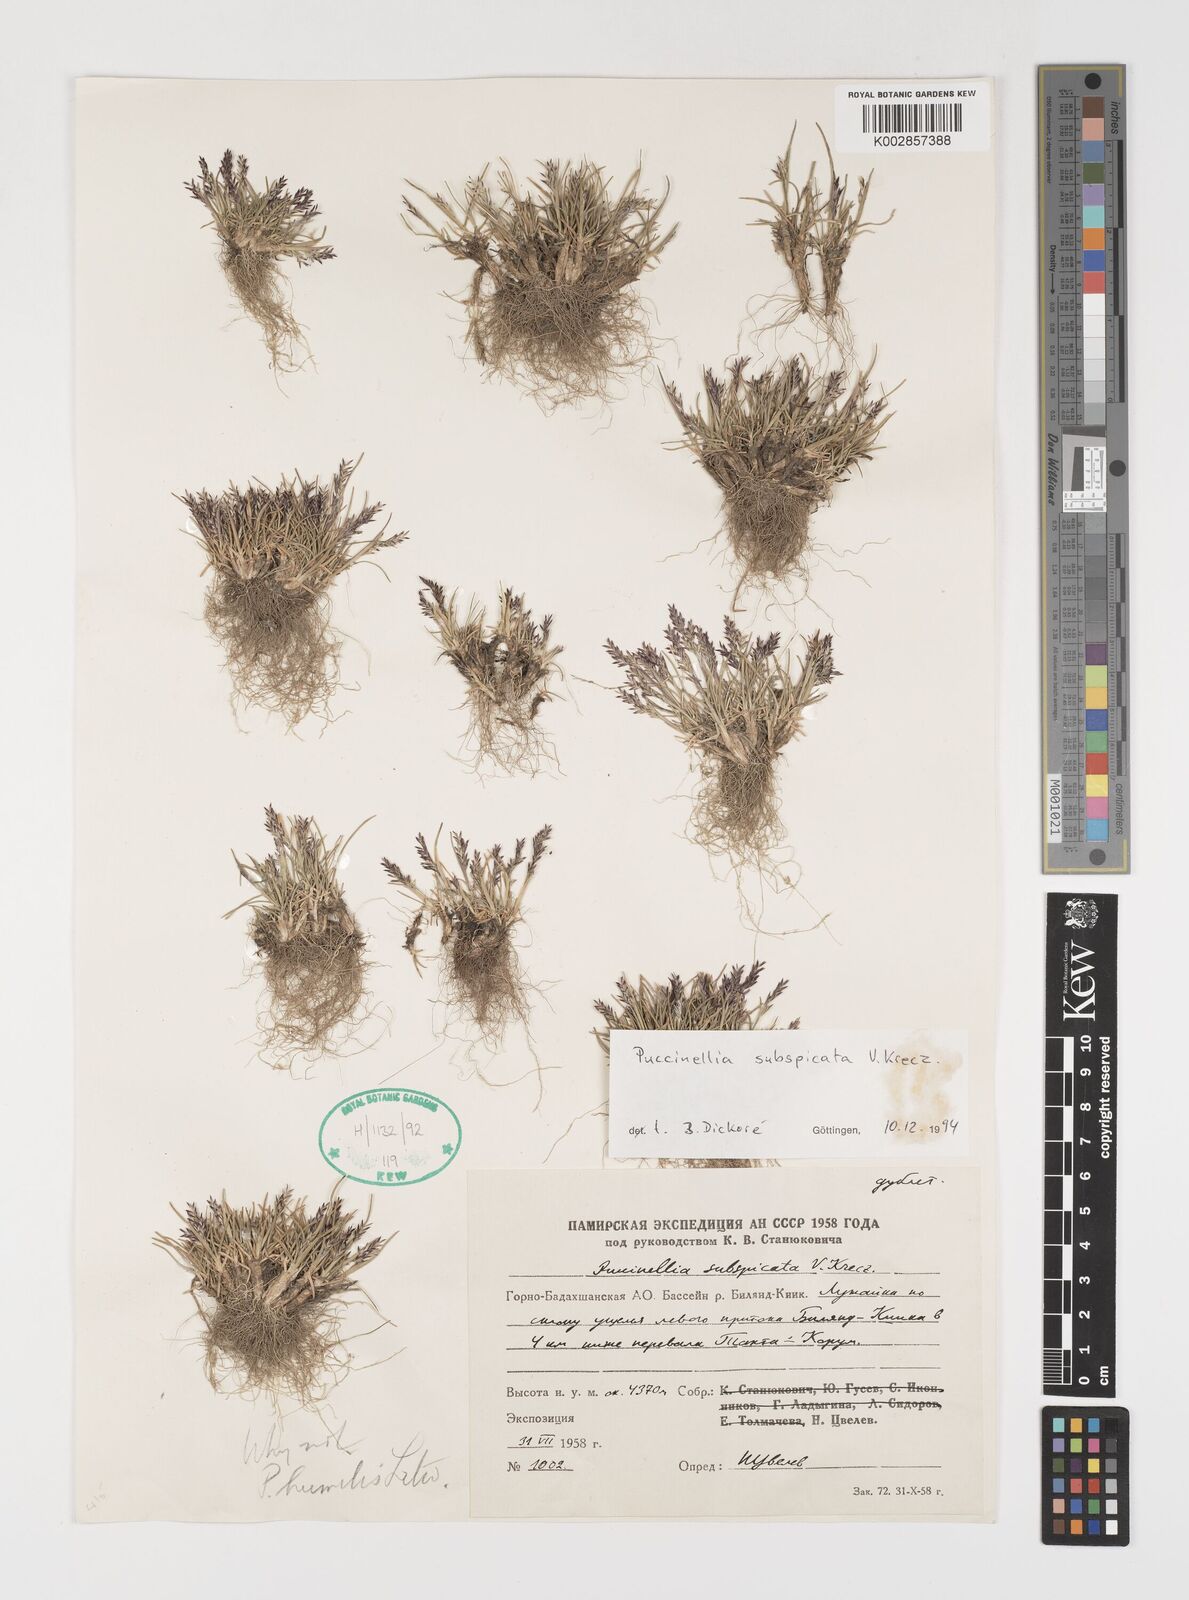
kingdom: Plantae
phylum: Tracheophyta
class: Liliopsida
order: Poales
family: Poaceae
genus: Puccinellia
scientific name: Puccinellia subspicata
